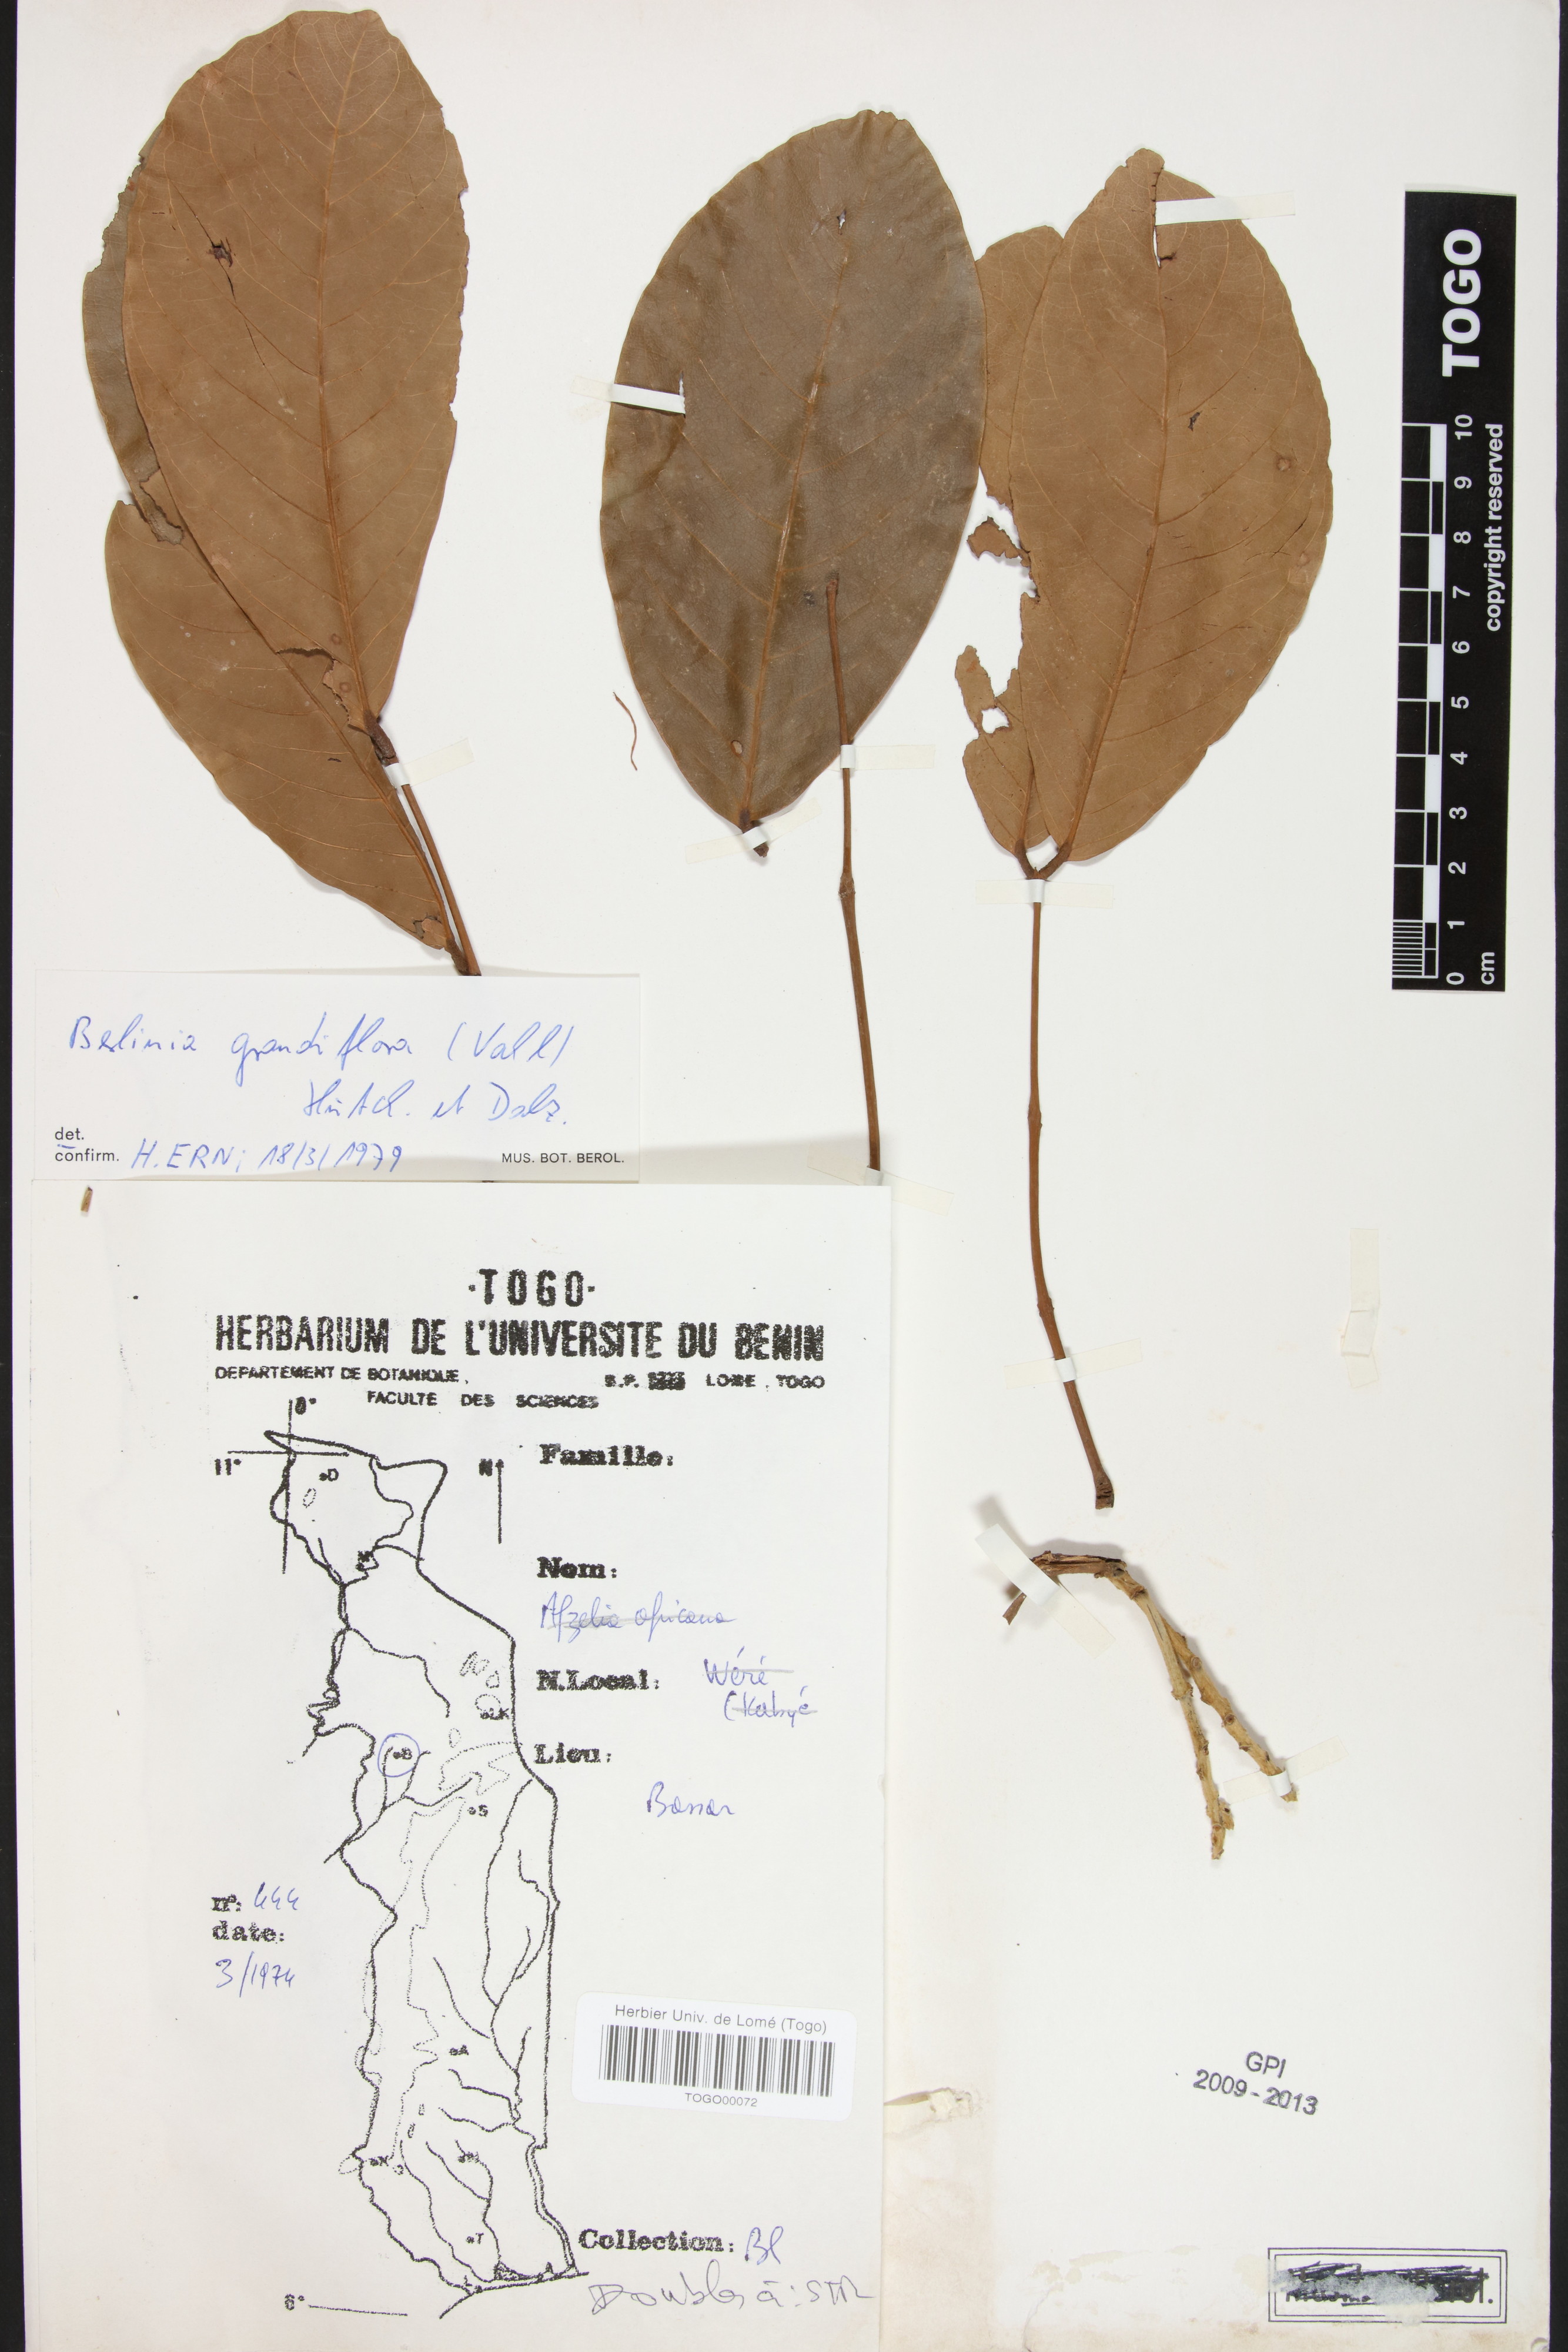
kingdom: Plantae
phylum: Tracheophyta
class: Magnoliopsida
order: Fabales
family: Fabaceae
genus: Berlinia
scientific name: Berlinia grandiflora
